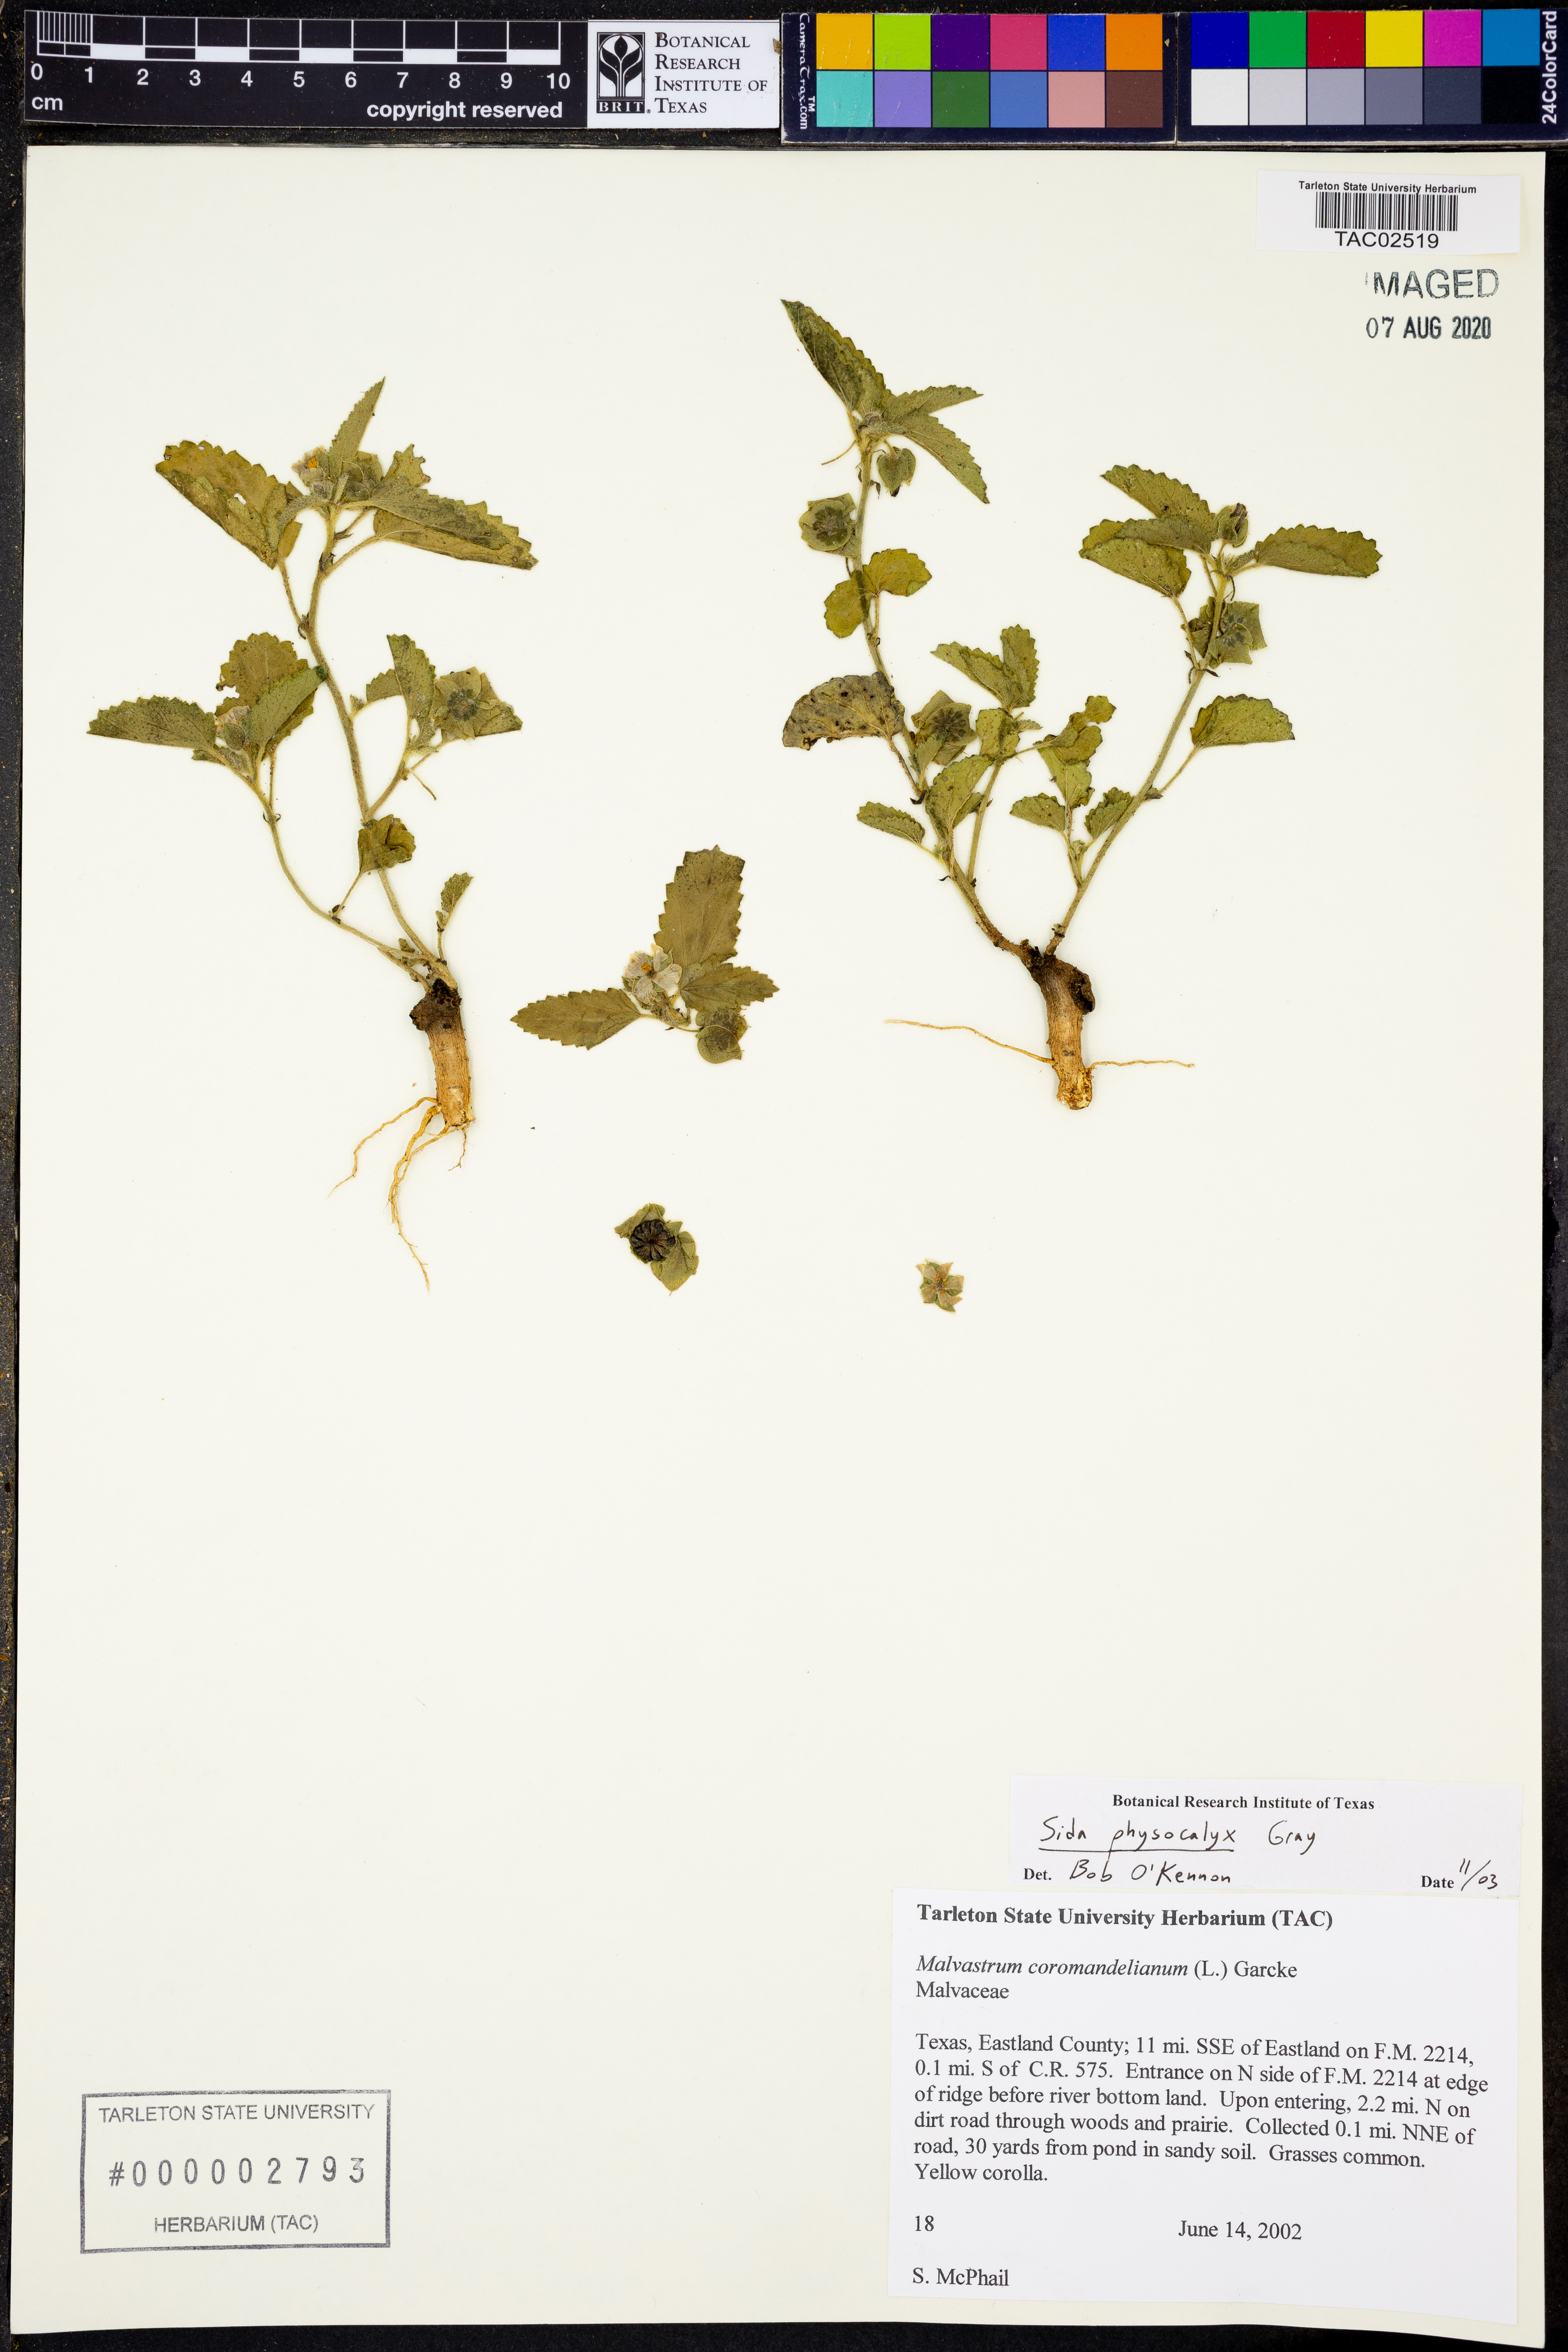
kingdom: Plantae
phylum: Tracheophyta
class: Magnoliopsida
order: Malvales
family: Malvaceae
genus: Rhynchosida
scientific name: Rhynchosida physocalyx
